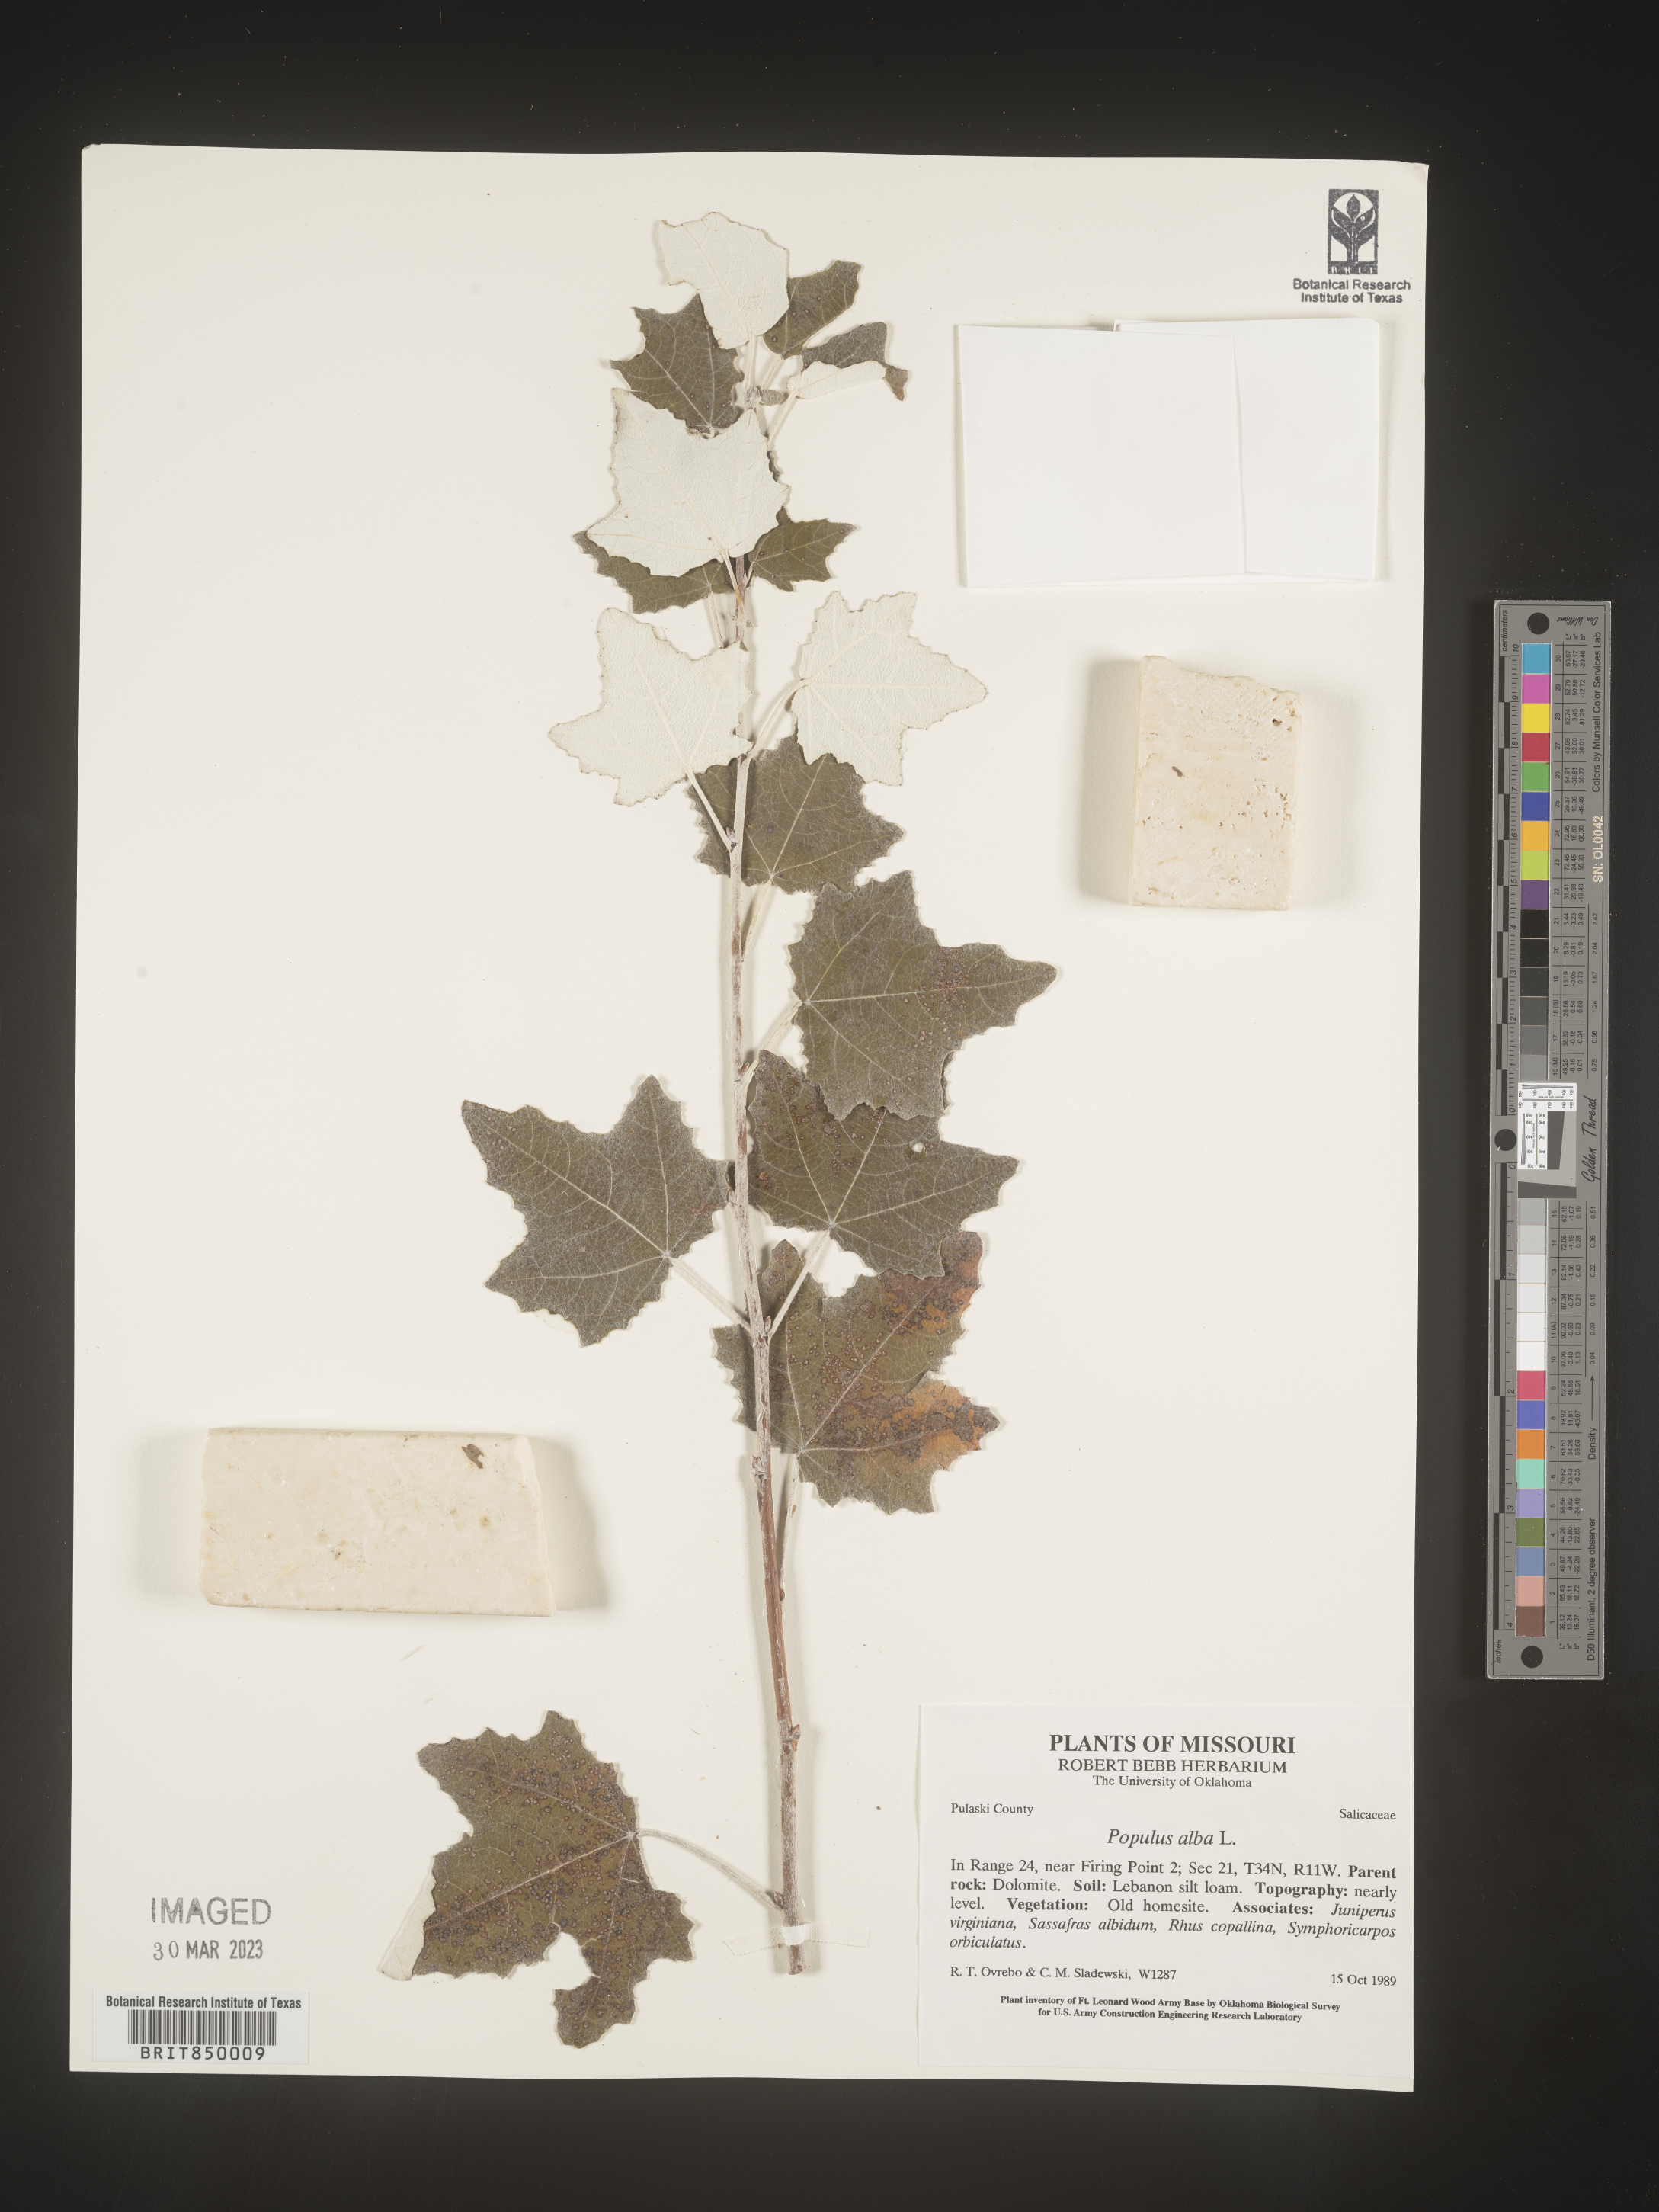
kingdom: Plantae
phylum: Tracheophyta
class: Magnoliopsida
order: Malpighiales
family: Salicaceae
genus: Populus
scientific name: Populus alba
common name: White poplar
